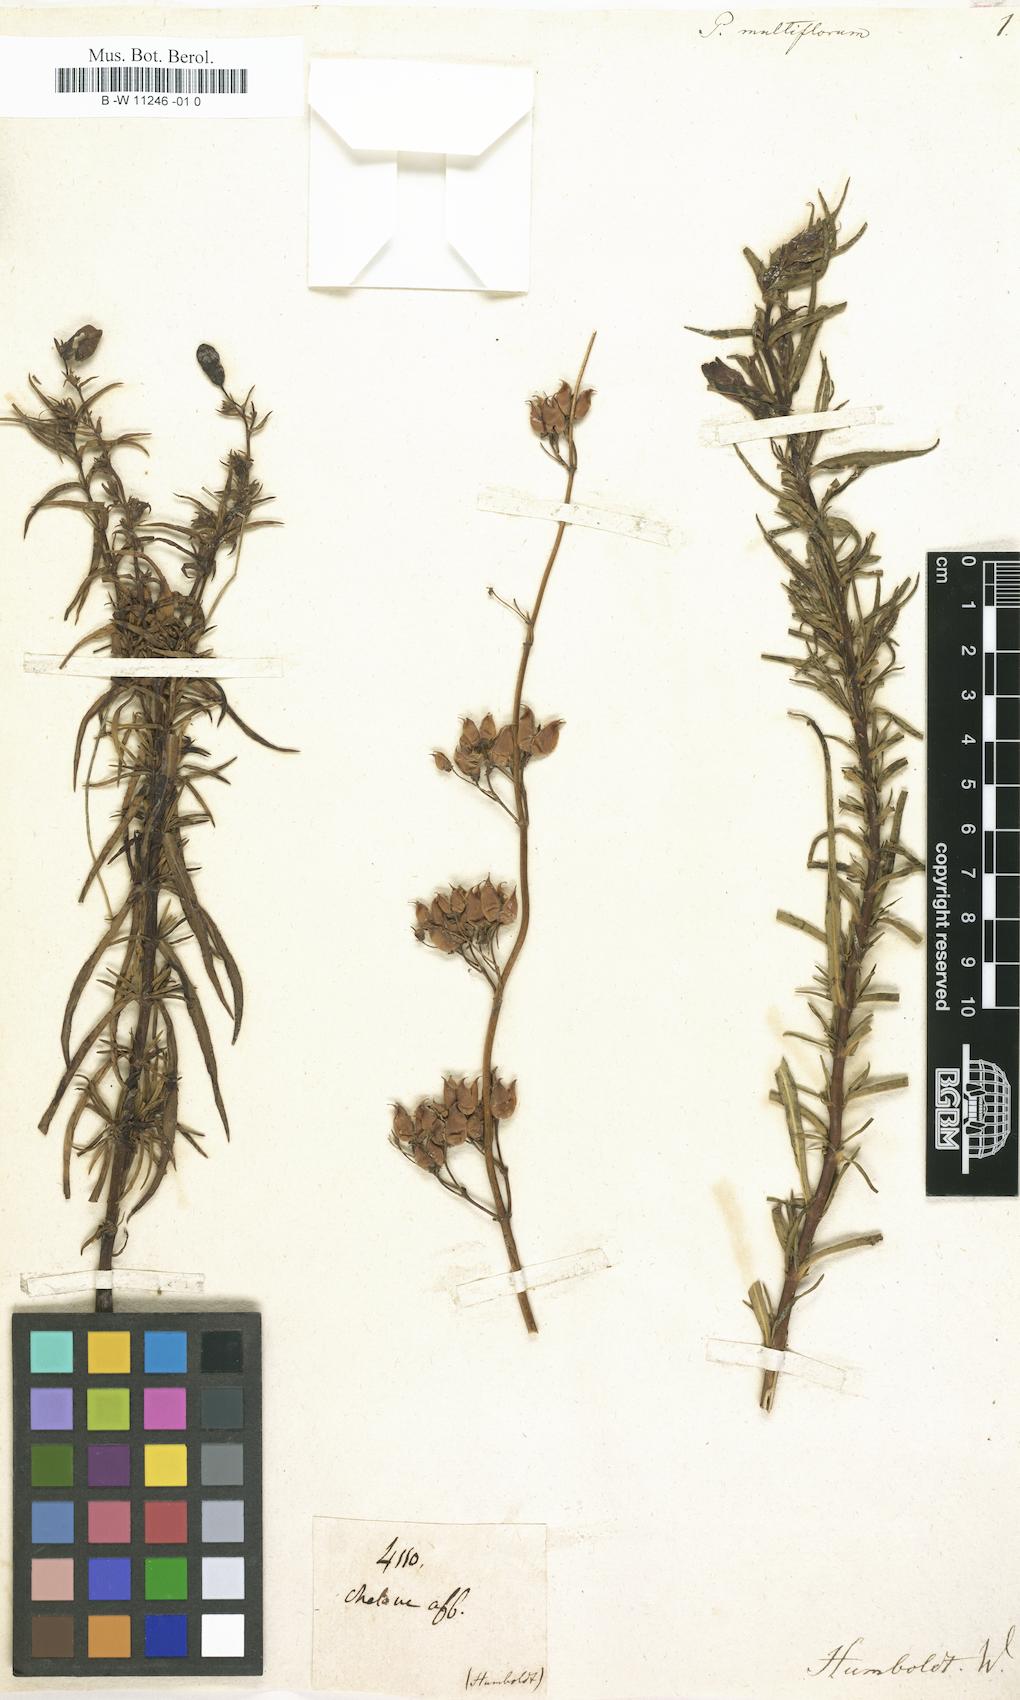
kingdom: Plantae
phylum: Tracheophyta
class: Magnoliopsida
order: Lamiales
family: Plantaginaceae
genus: Penstemon
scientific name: Penstemon multiflorus
